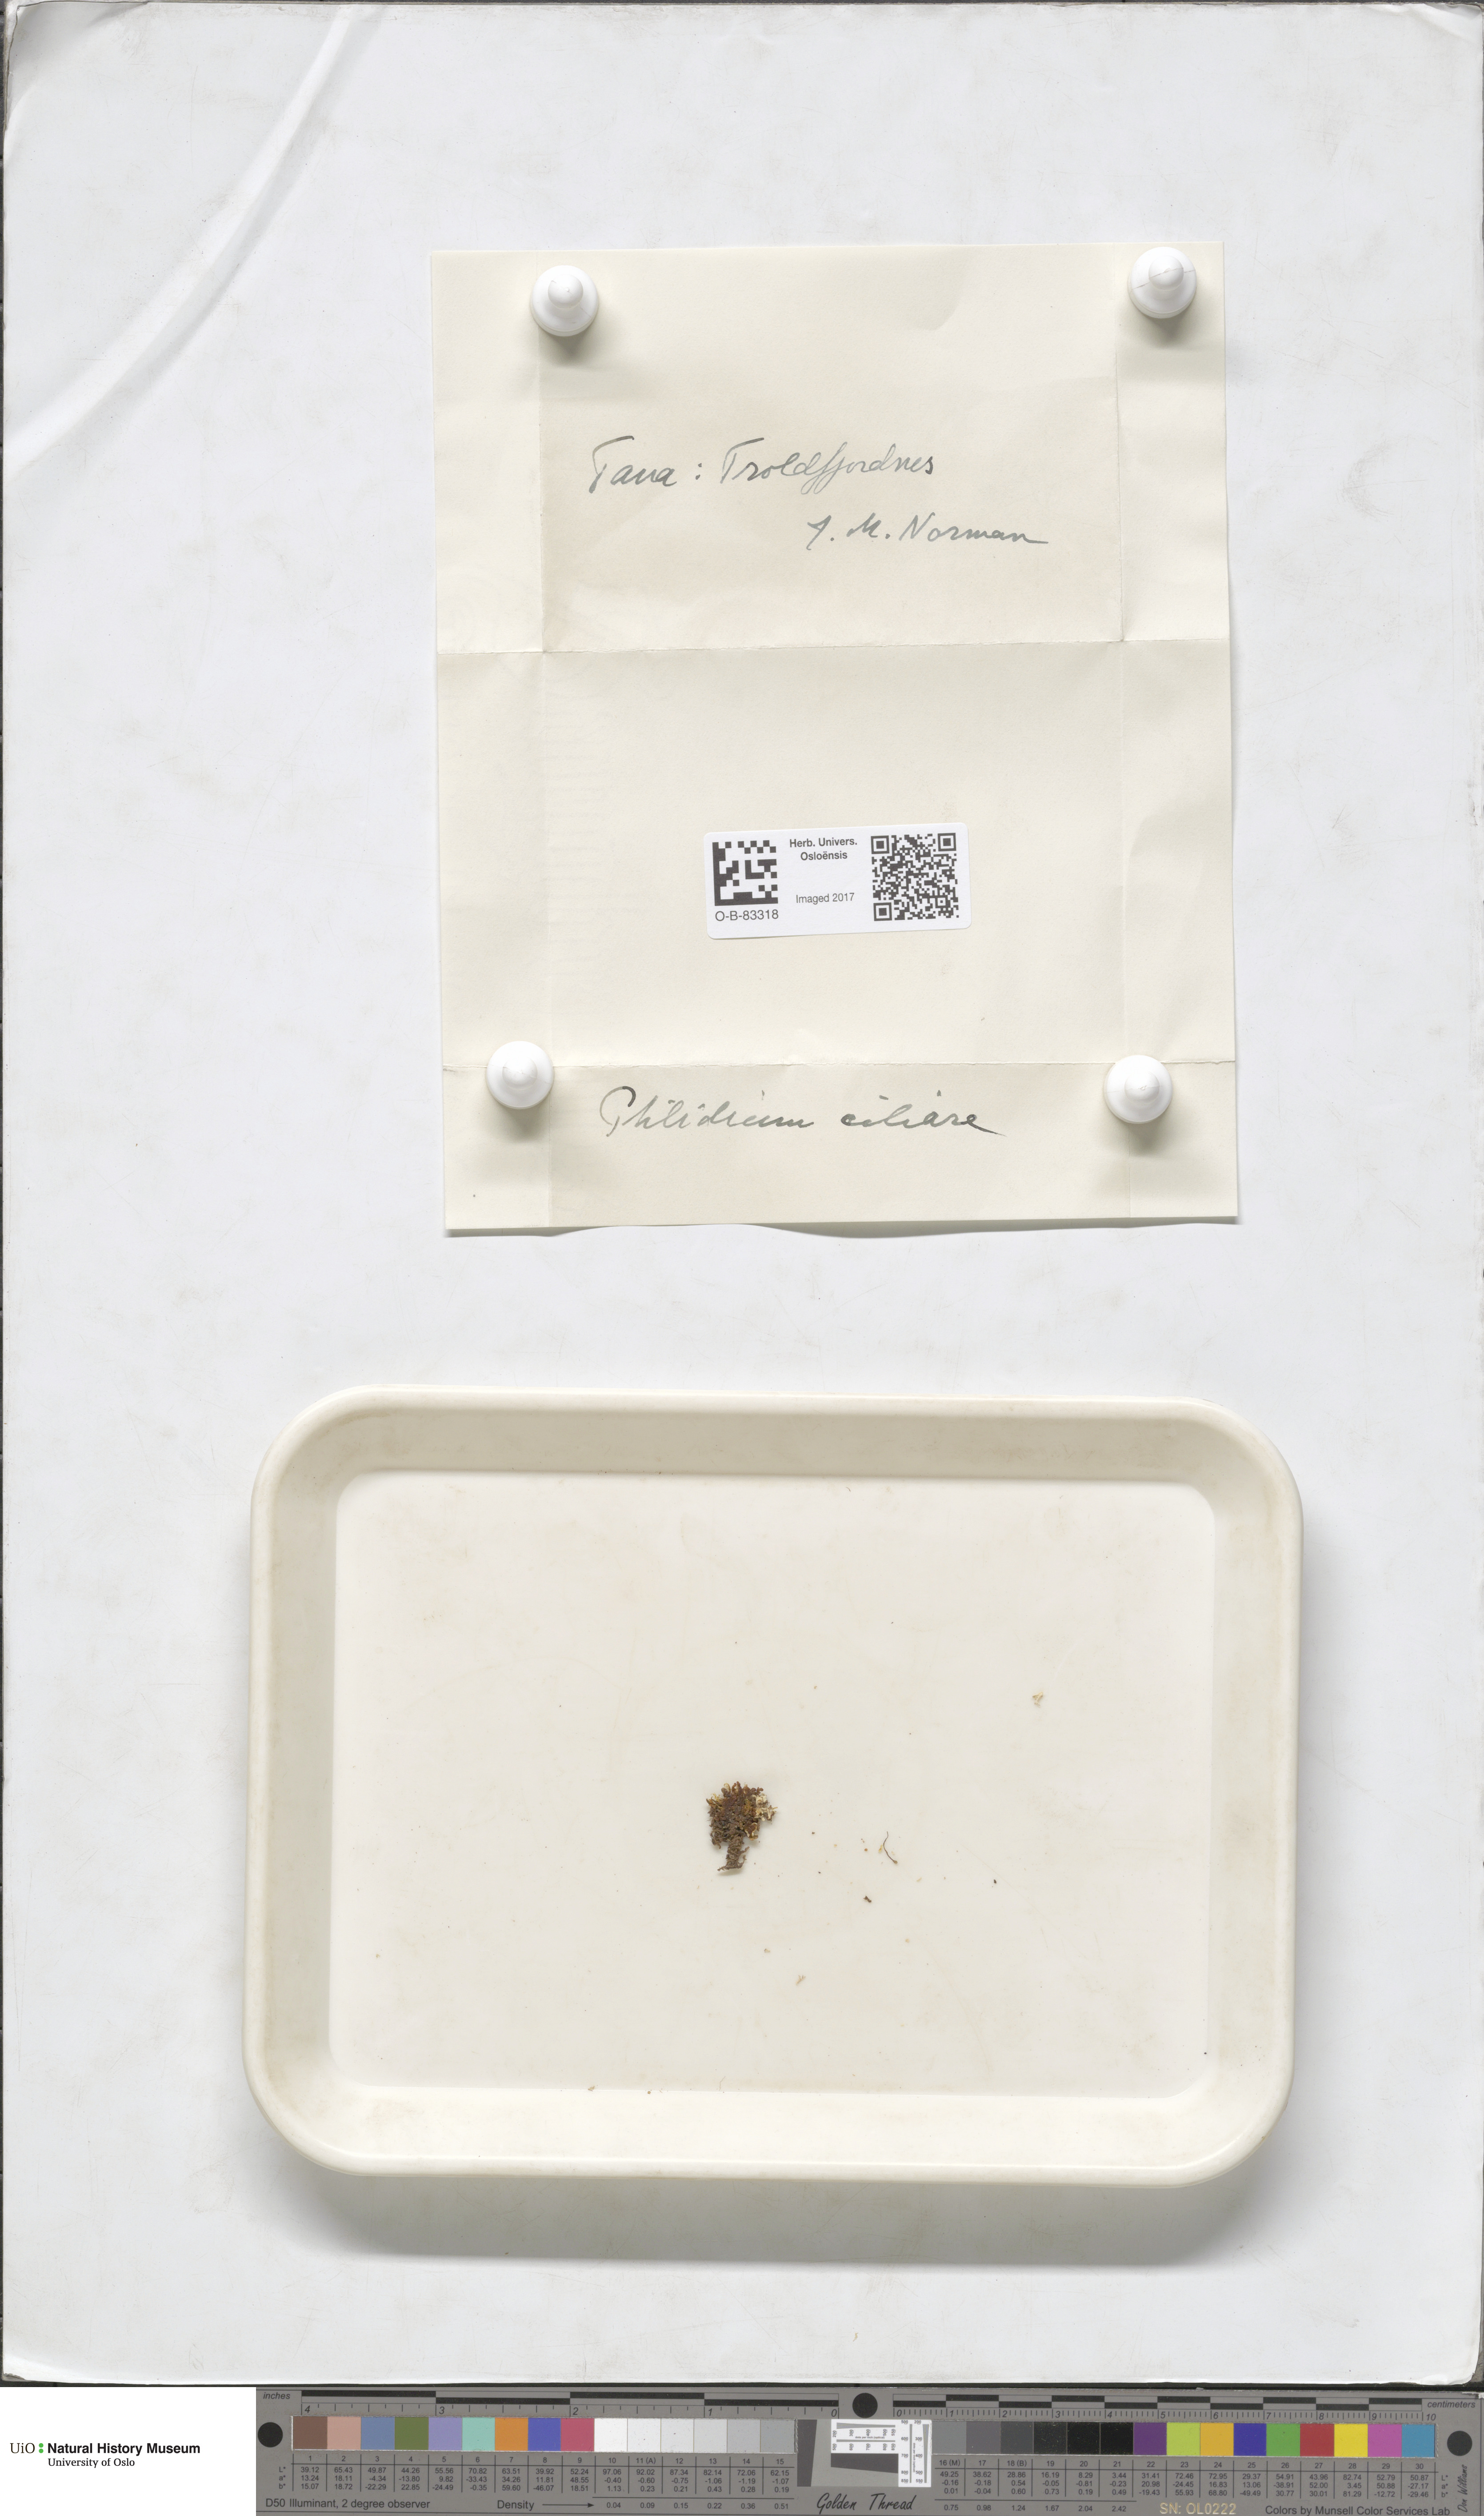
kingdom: Plantae
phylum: Marchantiophyta
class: Jungermanniopsida
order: Ptilidiales
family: Ptilidiaceae
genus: Ptilidium
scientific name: Ptilidium ciliare
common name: Ciliate fringewort
